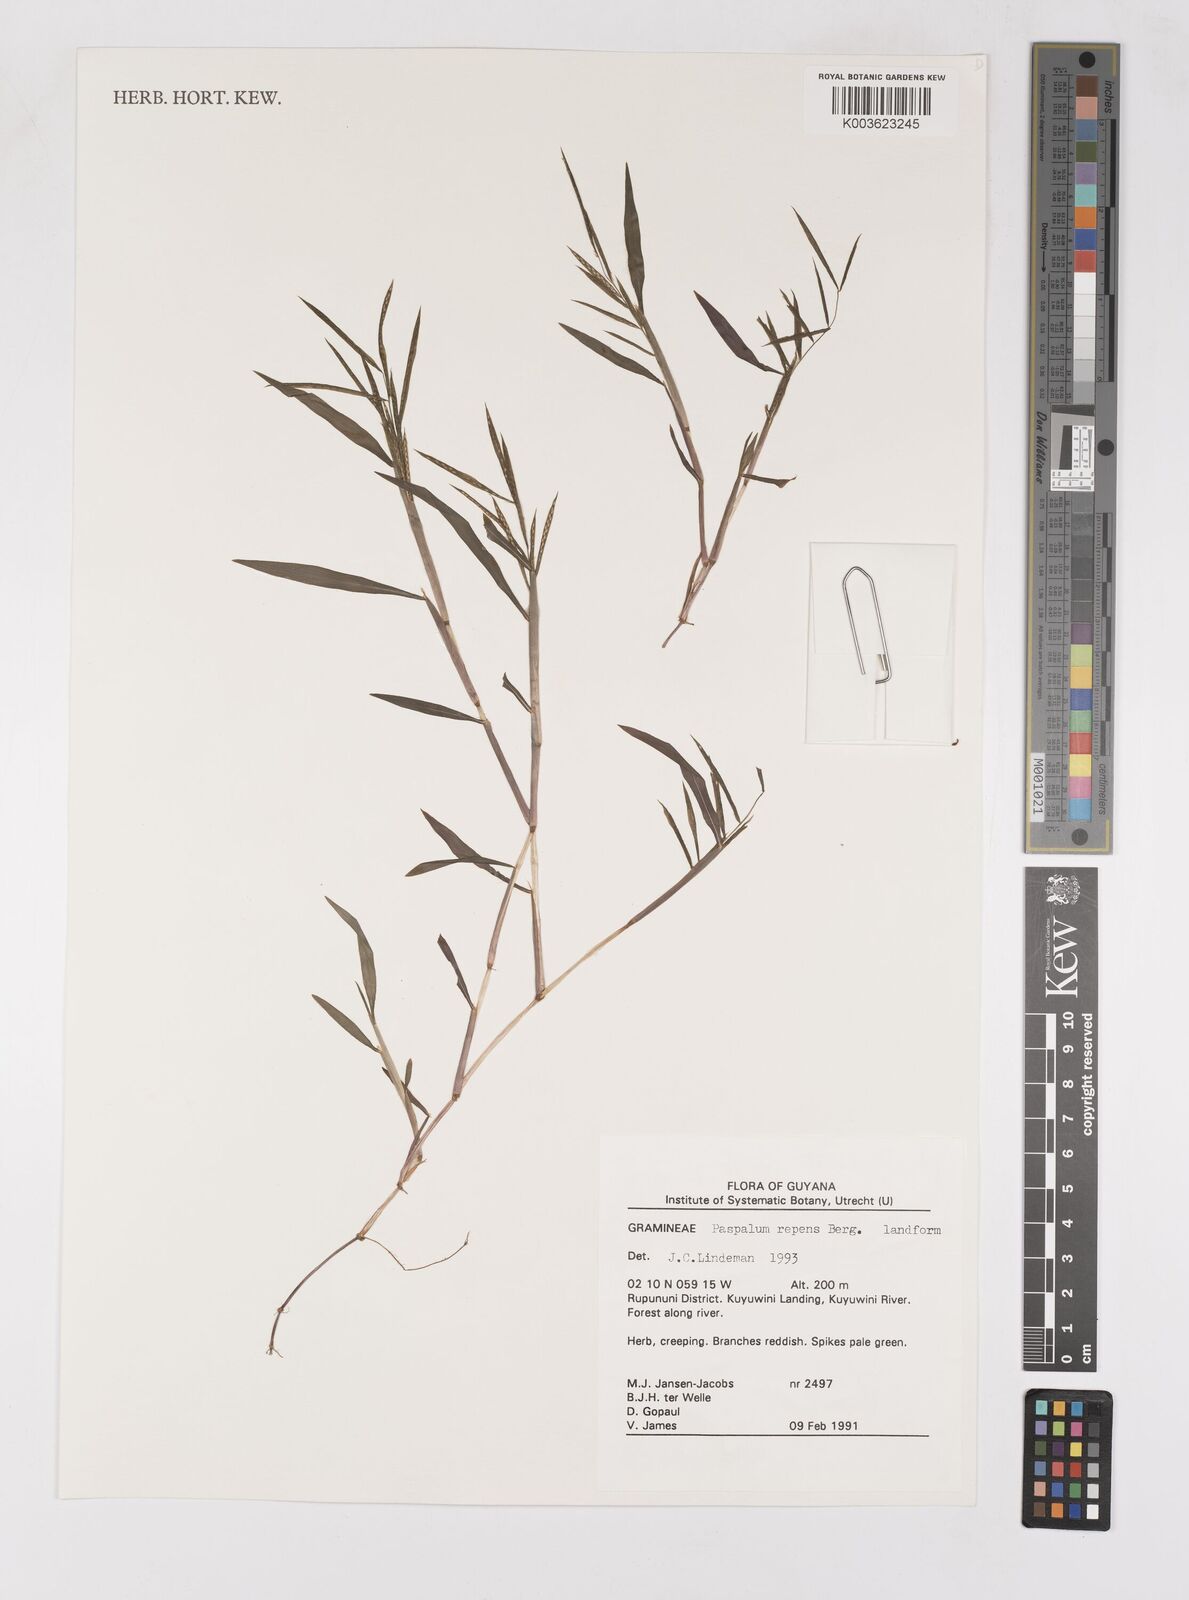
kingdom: Plantae
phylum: Tracheophyta
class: Liliopsida
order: Poales
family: Poaceae
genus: Paspalum
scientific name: Paspalum repens
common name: Water paspalum
